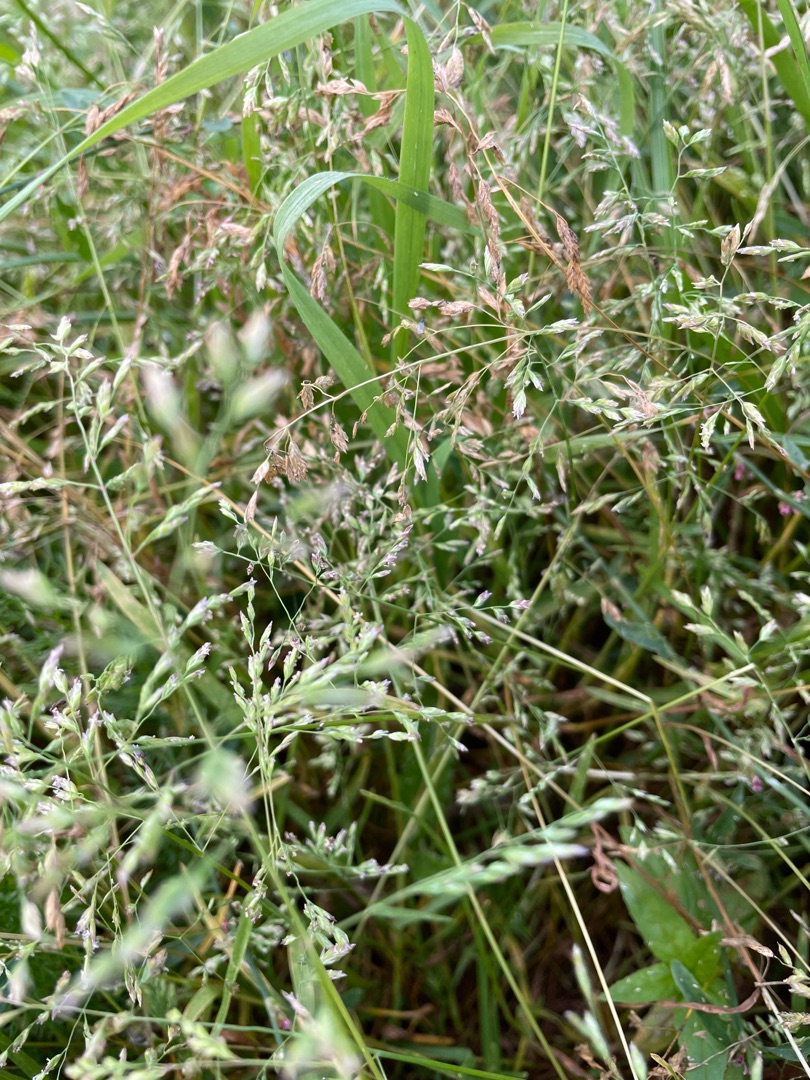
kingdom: Plantae
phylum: Tracheophyta
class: Liliopsida
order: Poales
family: Poaceae
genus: Poa
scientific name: Poa annua
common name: Enårig rapgræs
